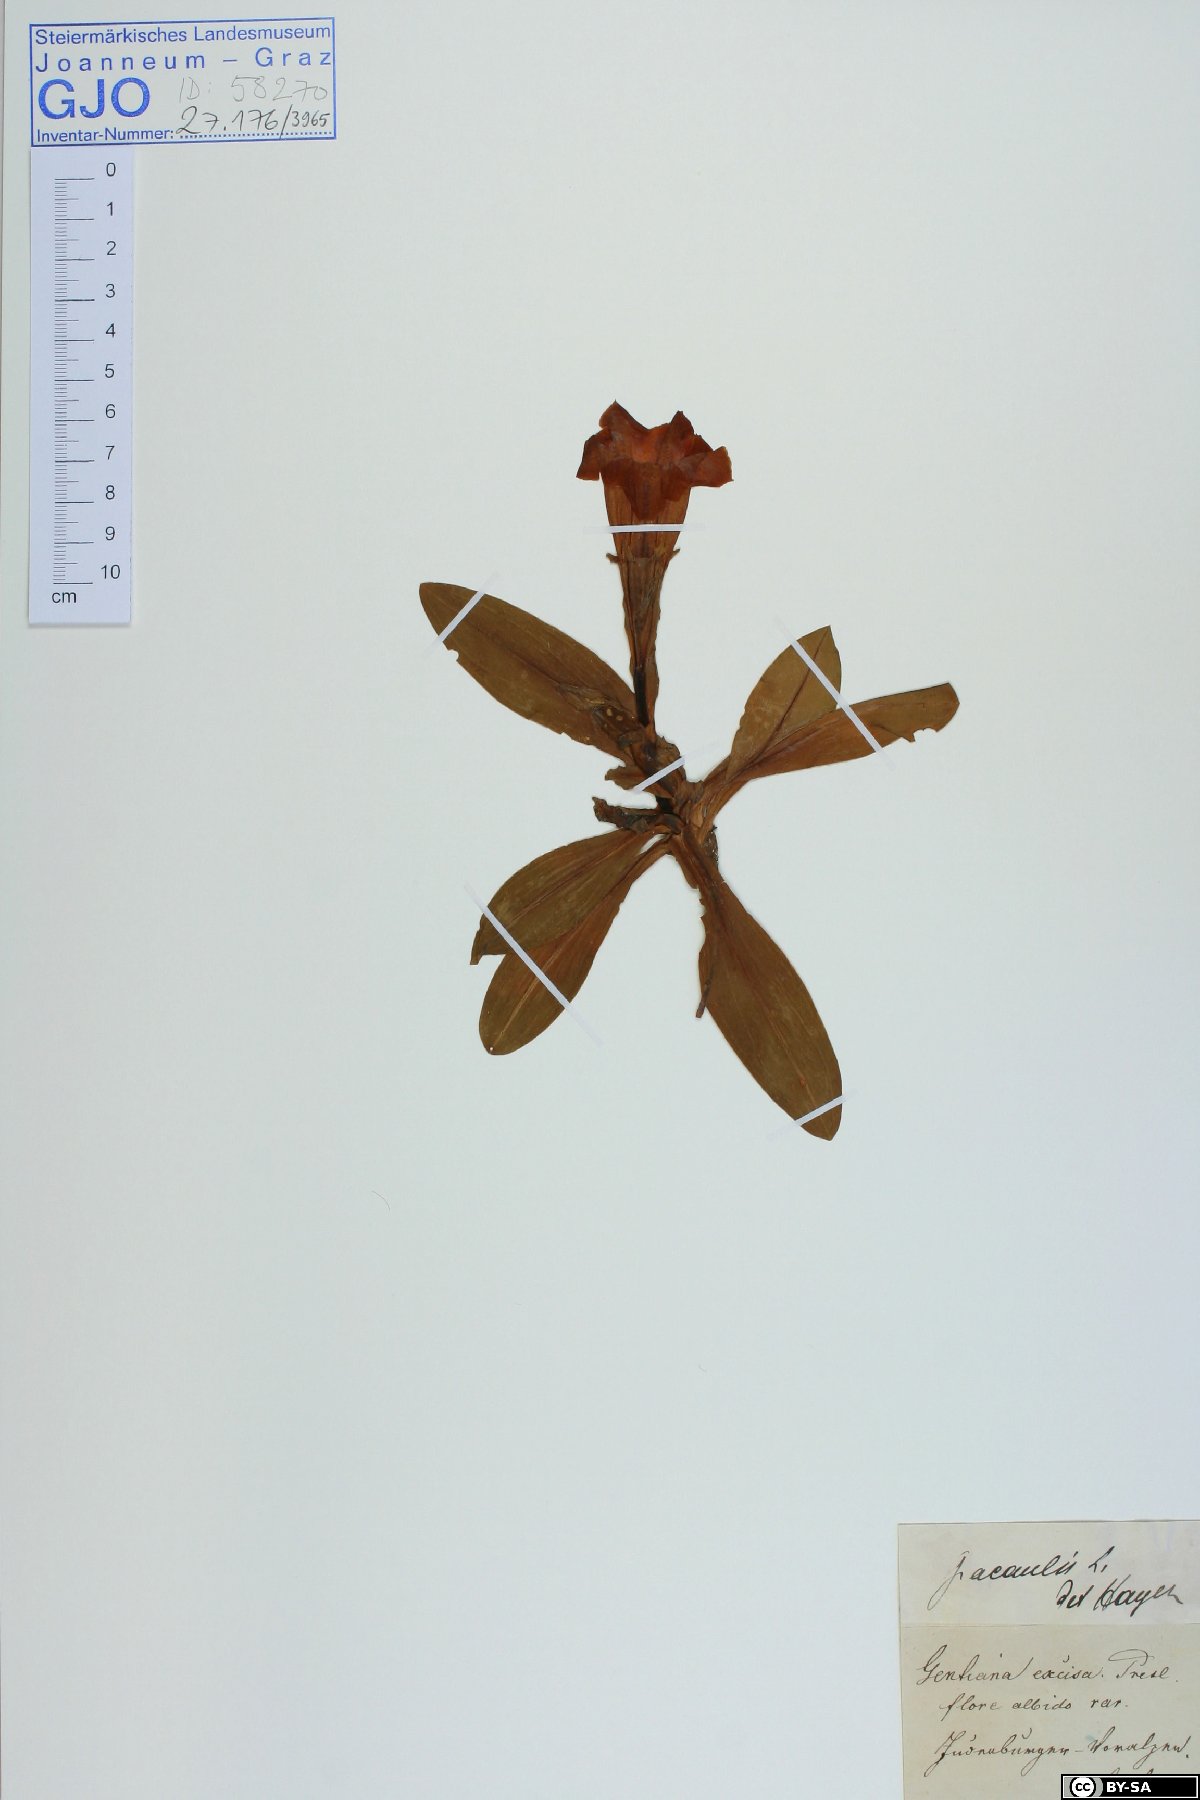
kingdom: Plantae
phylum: Tracheophyta
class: Magnoliopsida
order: Gentianales
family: Gentianaceae
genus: Gentiana
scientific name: Gentiana acaulis
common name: Trumpet gentian
